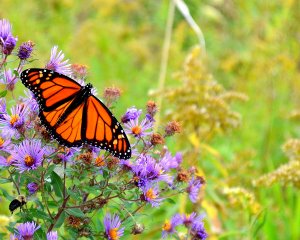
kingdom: Animalia
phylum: Arthropoda
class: Insecta
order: Lepidoptera
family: Nymphalidae
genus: Danaus
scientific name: Danaus plexippus
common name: Monarch
